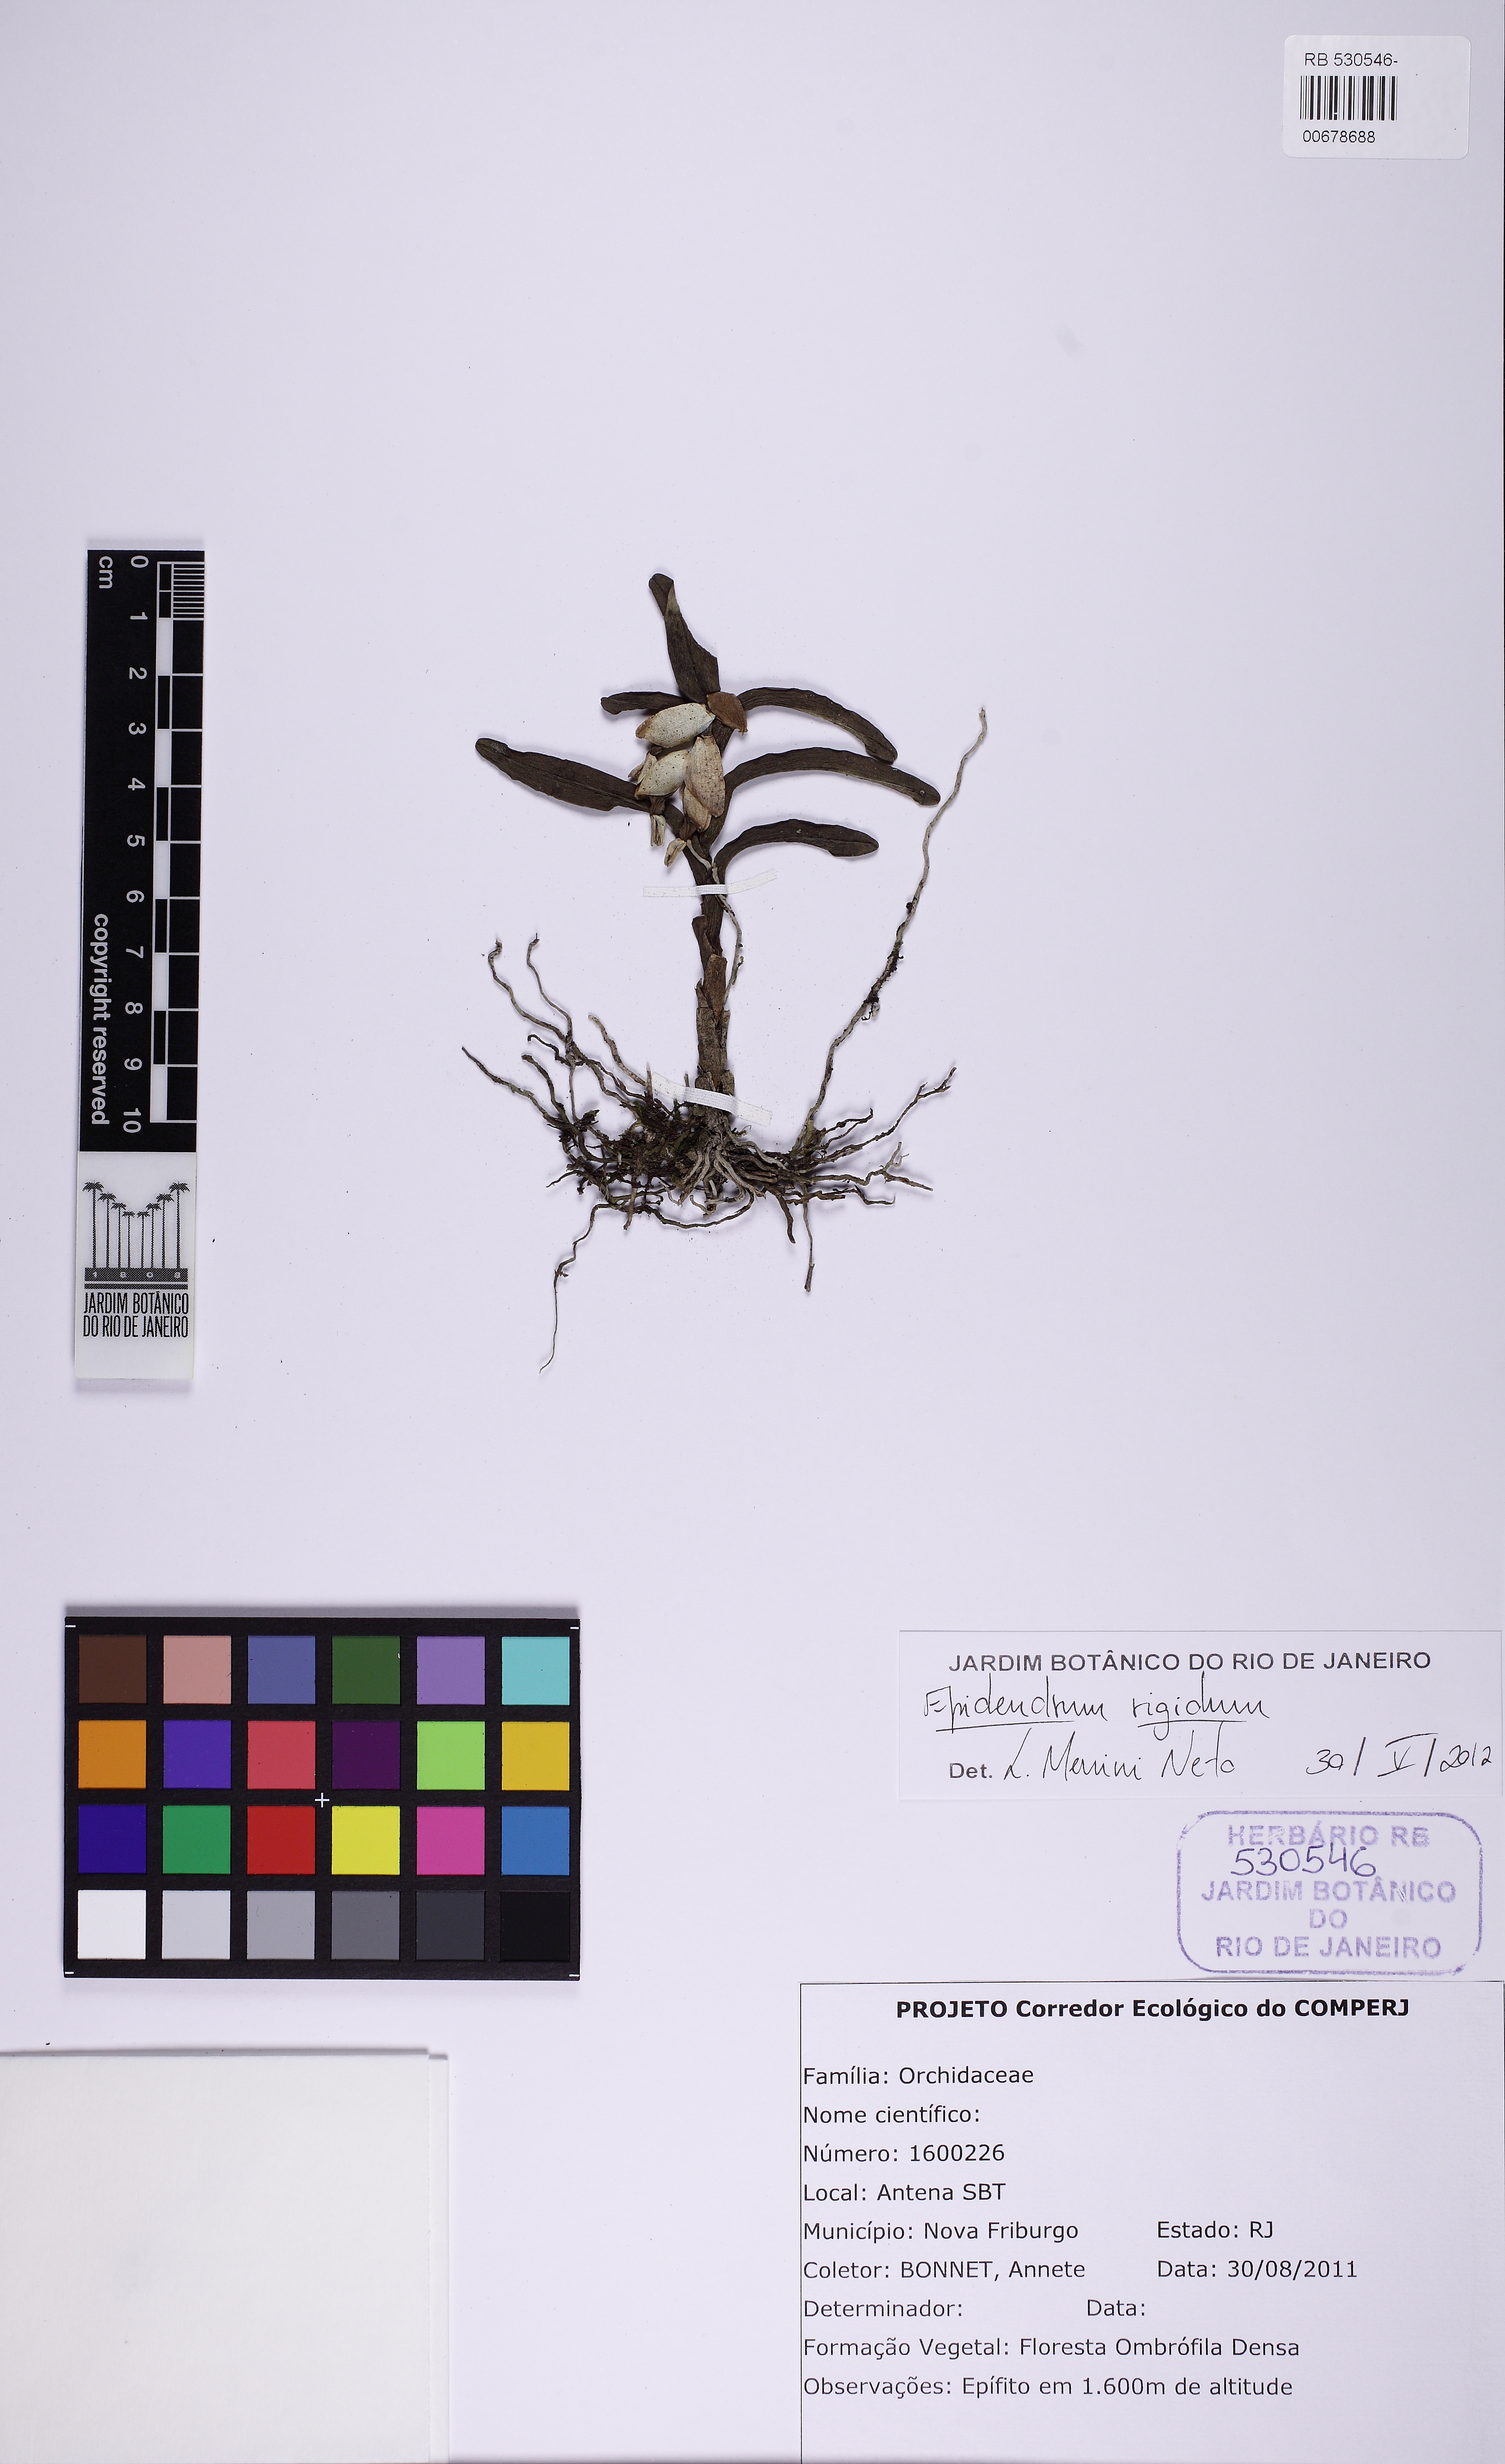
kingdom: Plantae
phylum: Tracheophyta
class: Liliopsida
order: Asparagales
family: Orchidaceae
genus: Epidendrum
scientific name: Epidendrum rigidum
